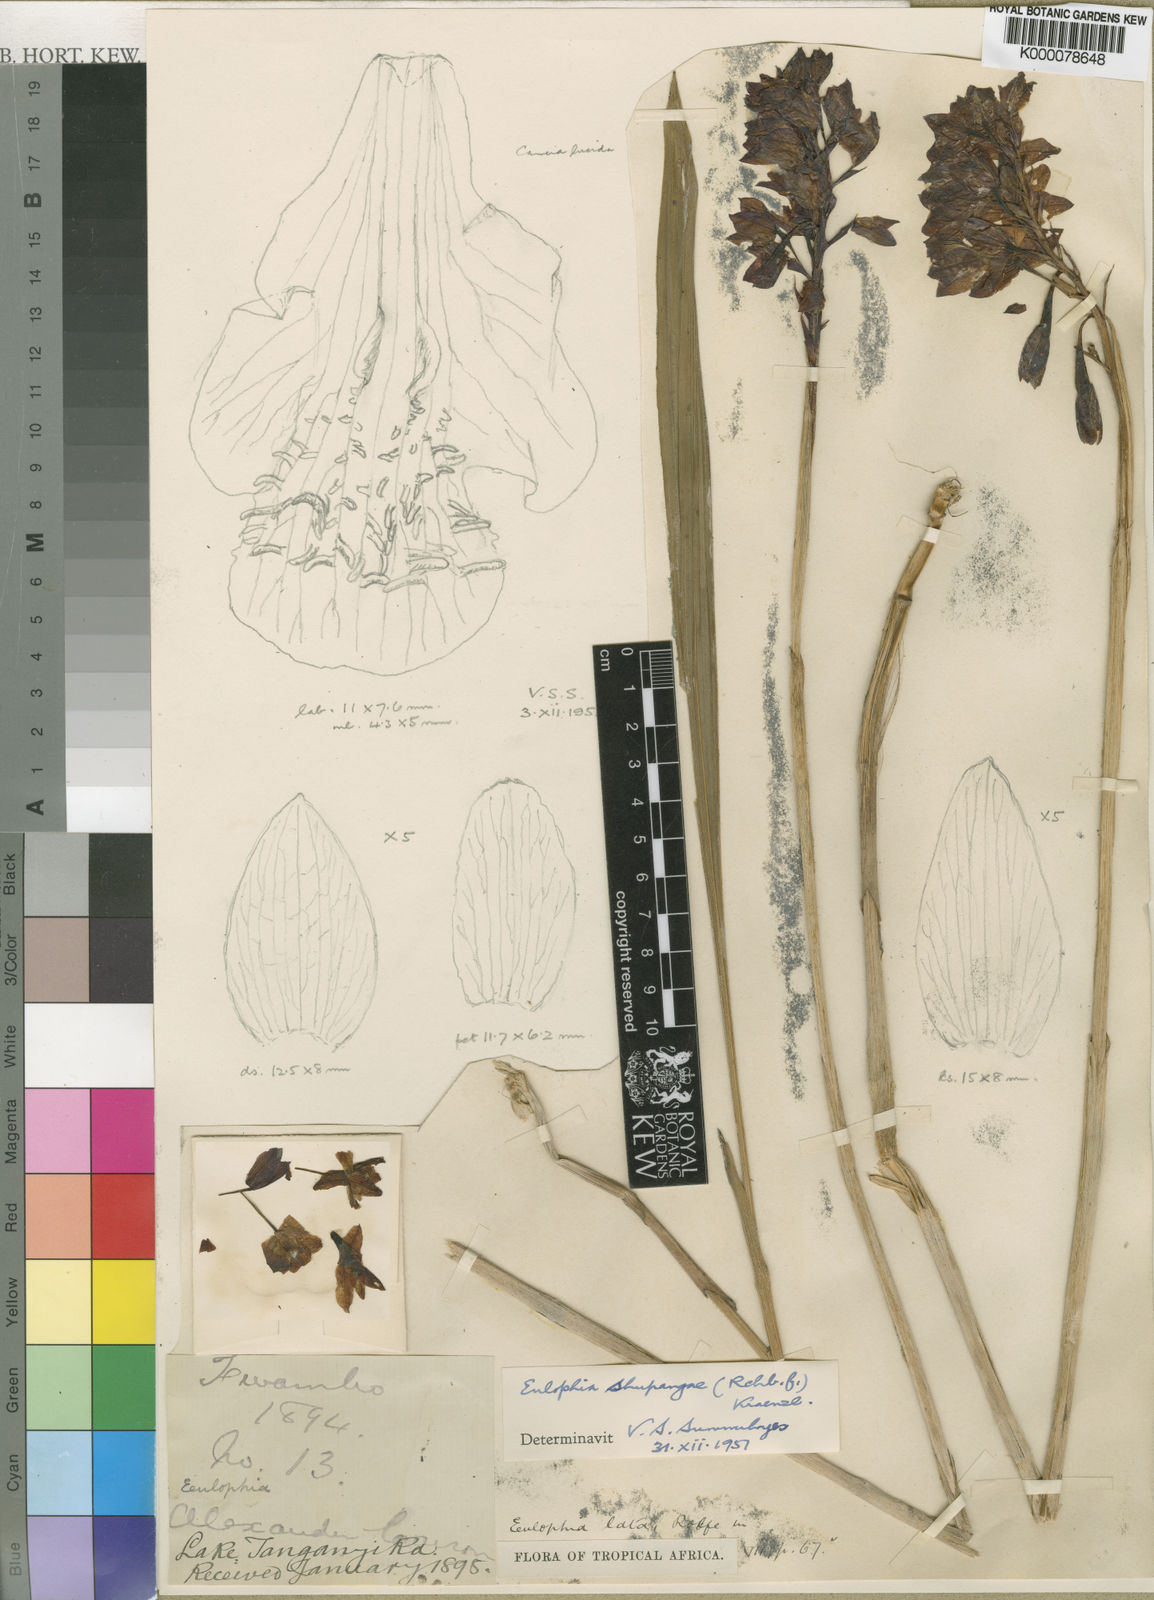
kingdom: Plantae
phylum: Tracheophyta
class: Liliopsida
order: Asparagales
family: Orchidaceae
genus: Eulophia
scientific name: Eulophia
